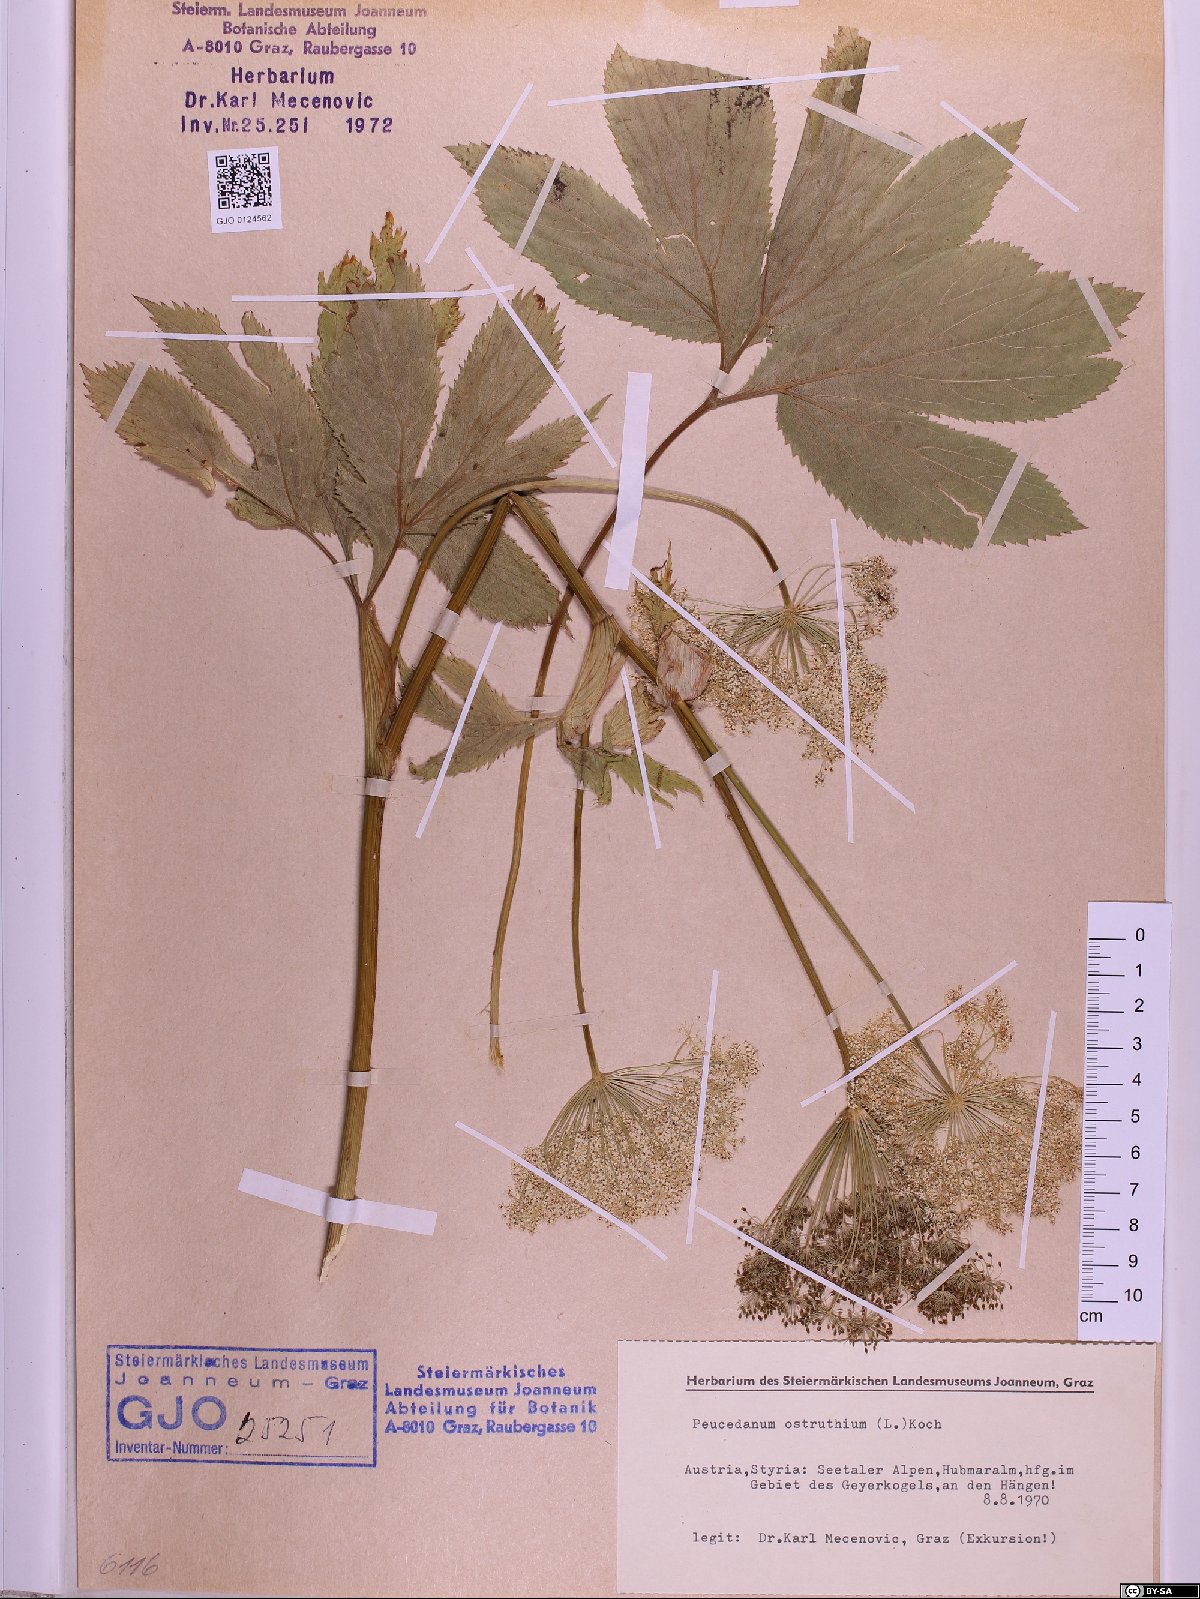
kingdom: Plantae
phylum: Tracheophyta
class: Magnoliopsida
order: Apiales
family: Apiaceae
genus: Imperatoria
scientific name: Imperatoria ostruthium
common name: Masterwort
